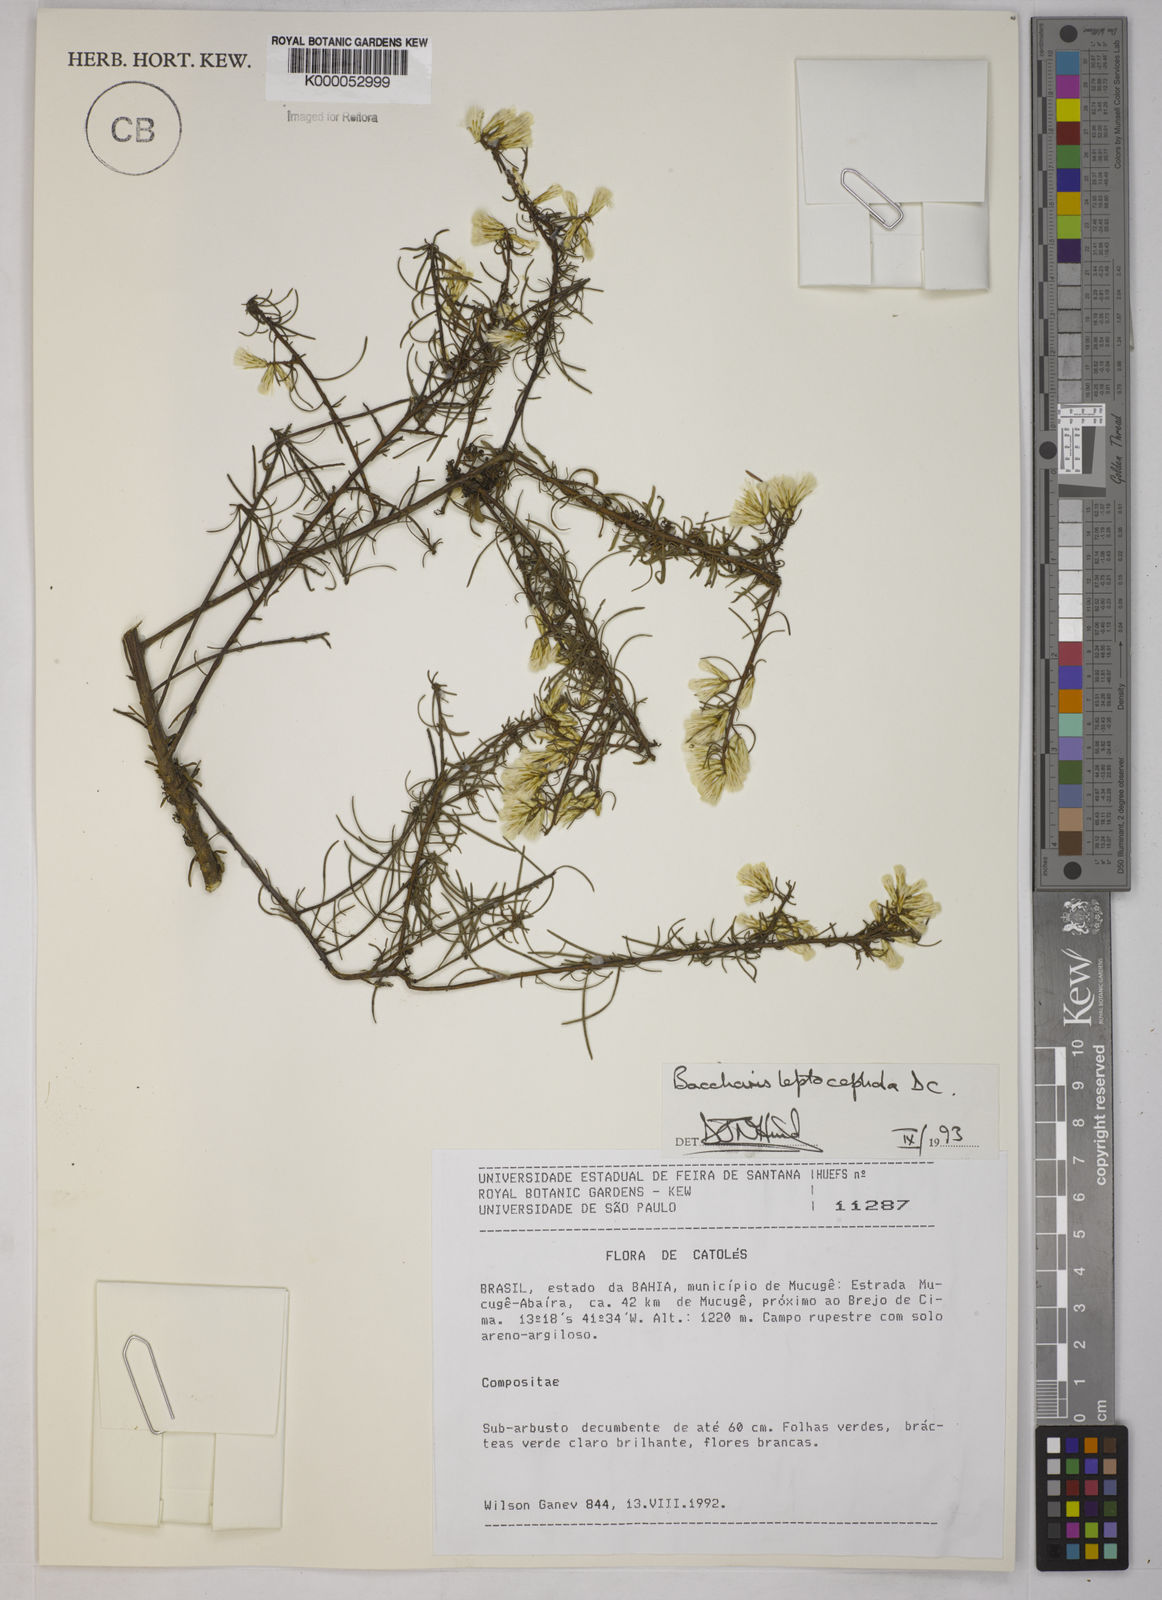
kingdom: Plantae
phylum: Tracheophyta
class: Magnoliopsida
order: Asterales
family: Asteraceae
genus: Baccharis
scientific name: Baccharis leptocephala
